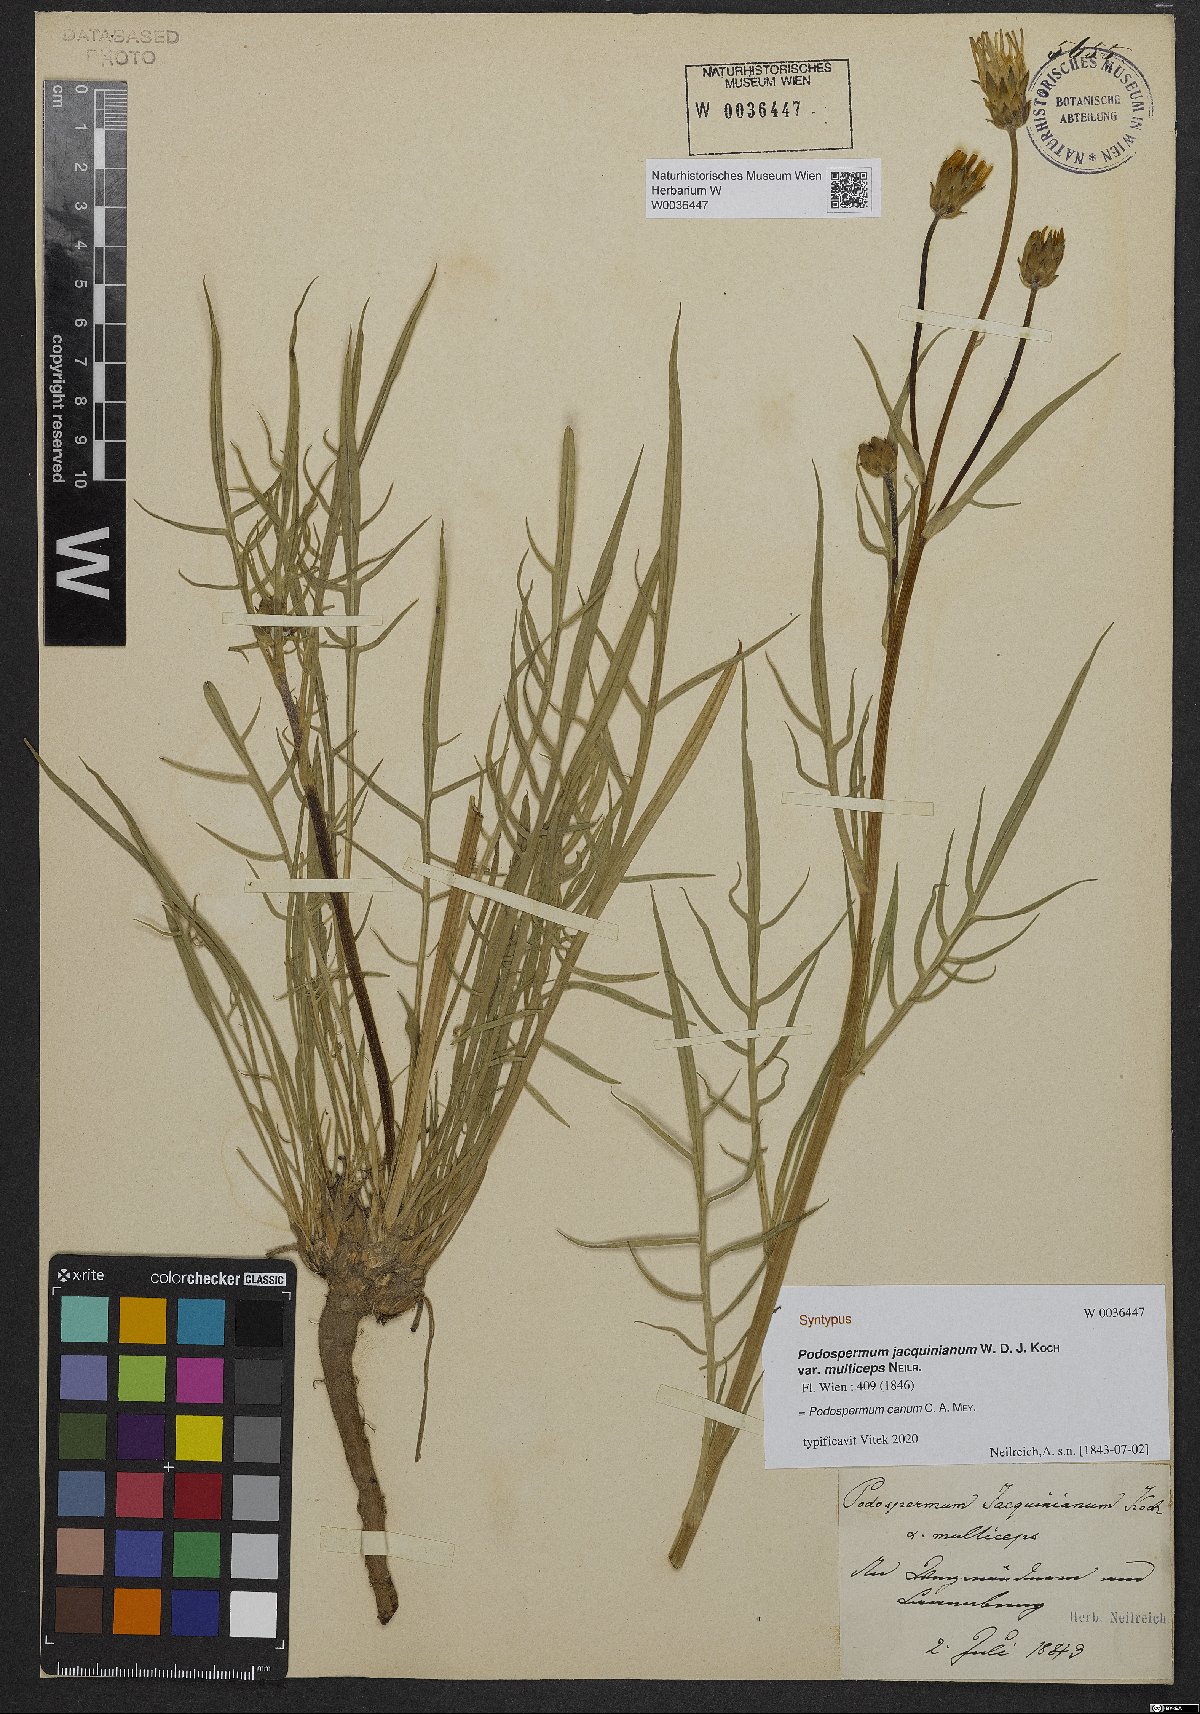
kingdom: Plantae
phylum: Tracheophyta
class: Magnoliopsida
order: Asterales
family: Asteraceae
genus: Scorzonera
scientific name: Scorzonera cana
